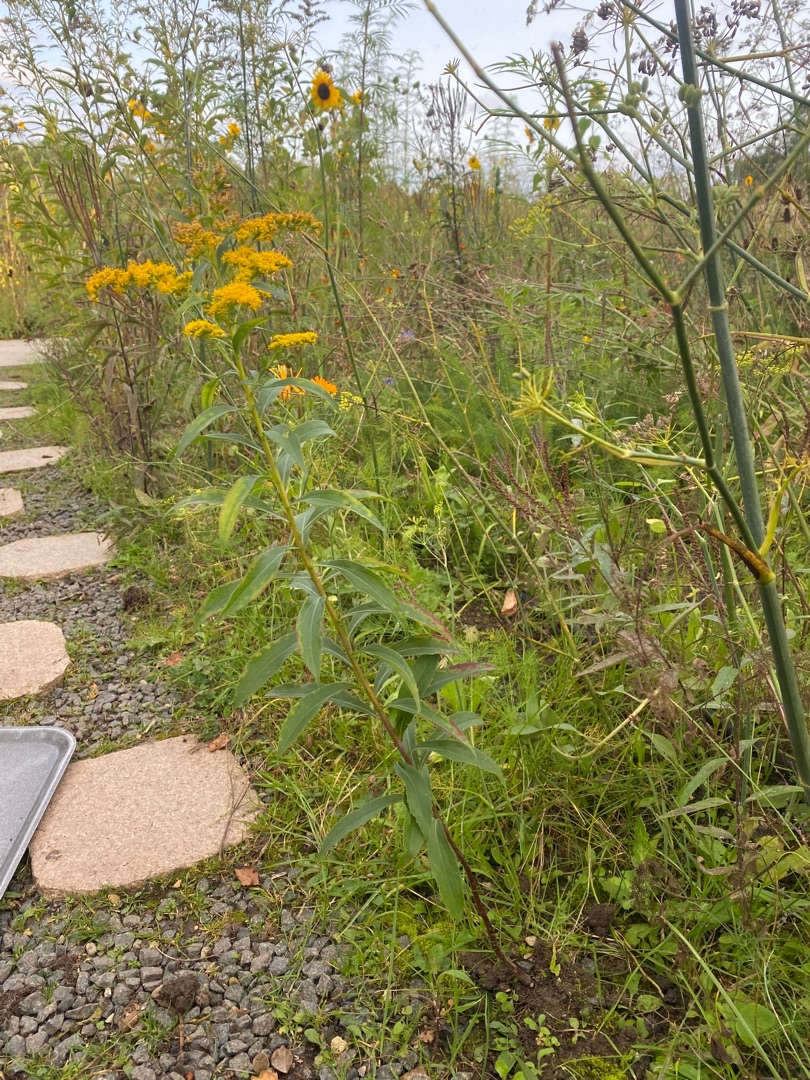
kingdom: Plantae
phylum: Tracheophyta
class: Magnoliopsida
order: Asterales
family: Asteraceae
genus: Solidago
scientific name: Solidago gigantea
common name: Sildig gyldenris
